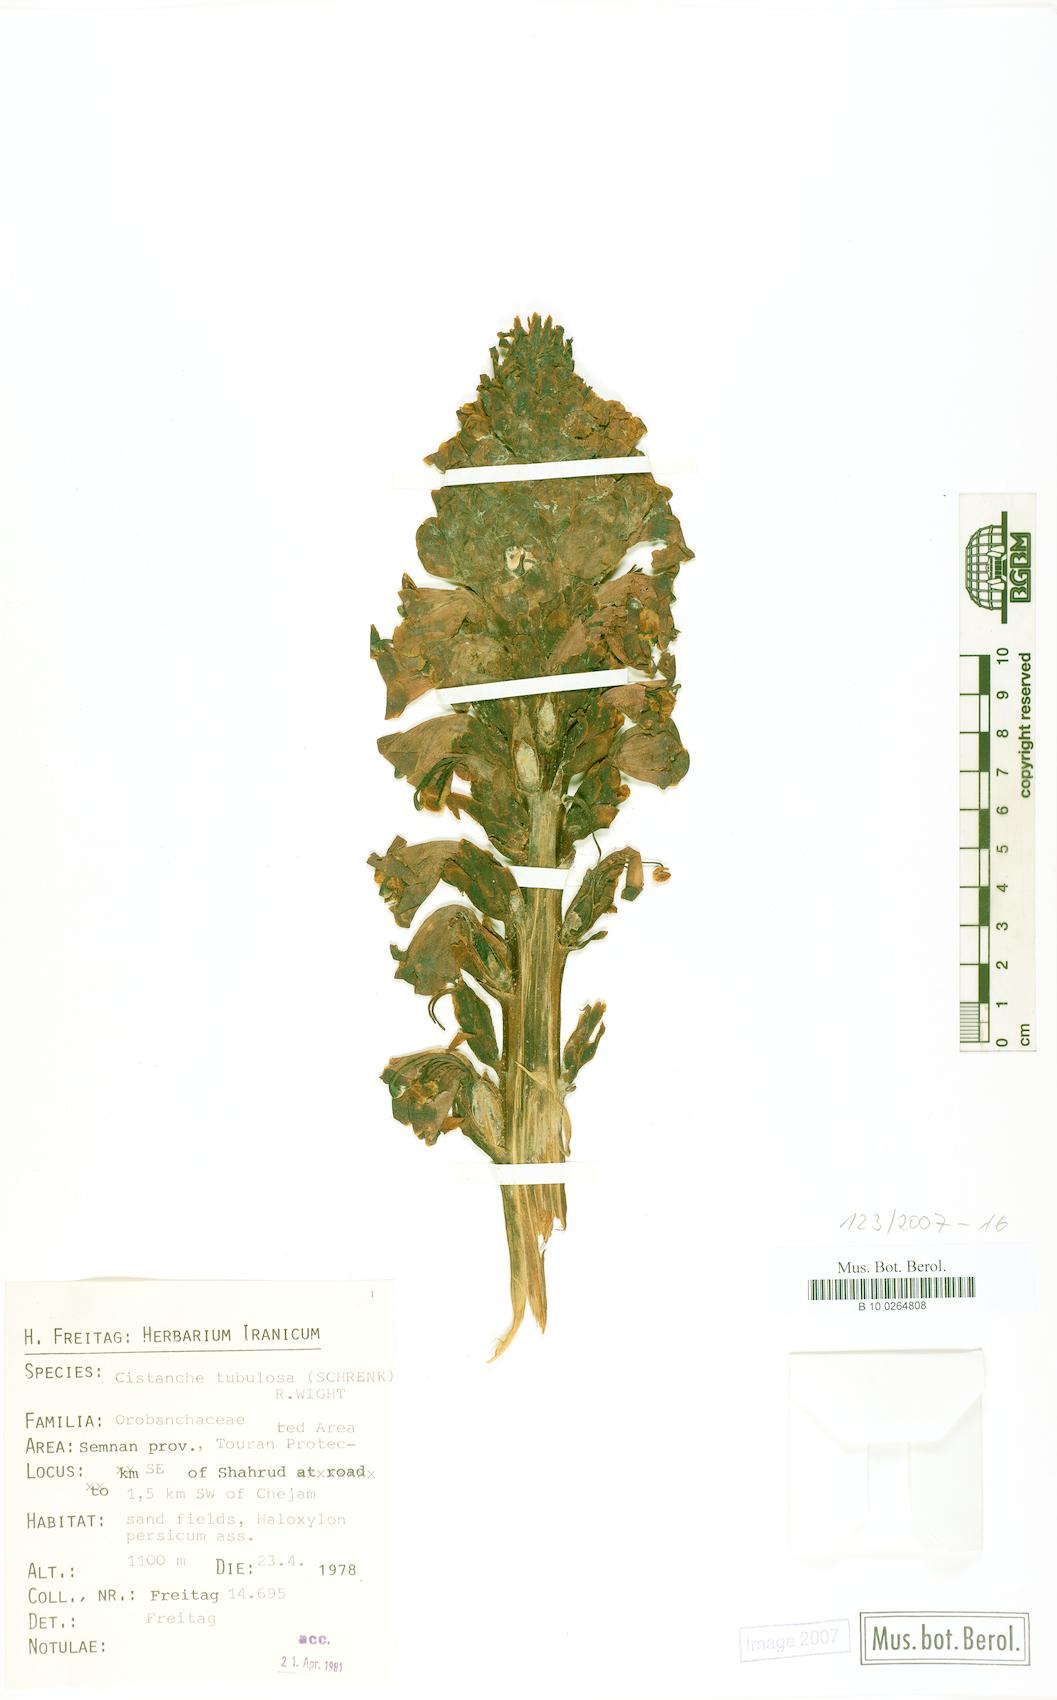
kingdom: Plantae
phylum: Tracheophyta
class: Magnoliopsida
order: Lamiales
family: Orobanchaceae
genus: Cistanche
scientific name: Cistanche flava
